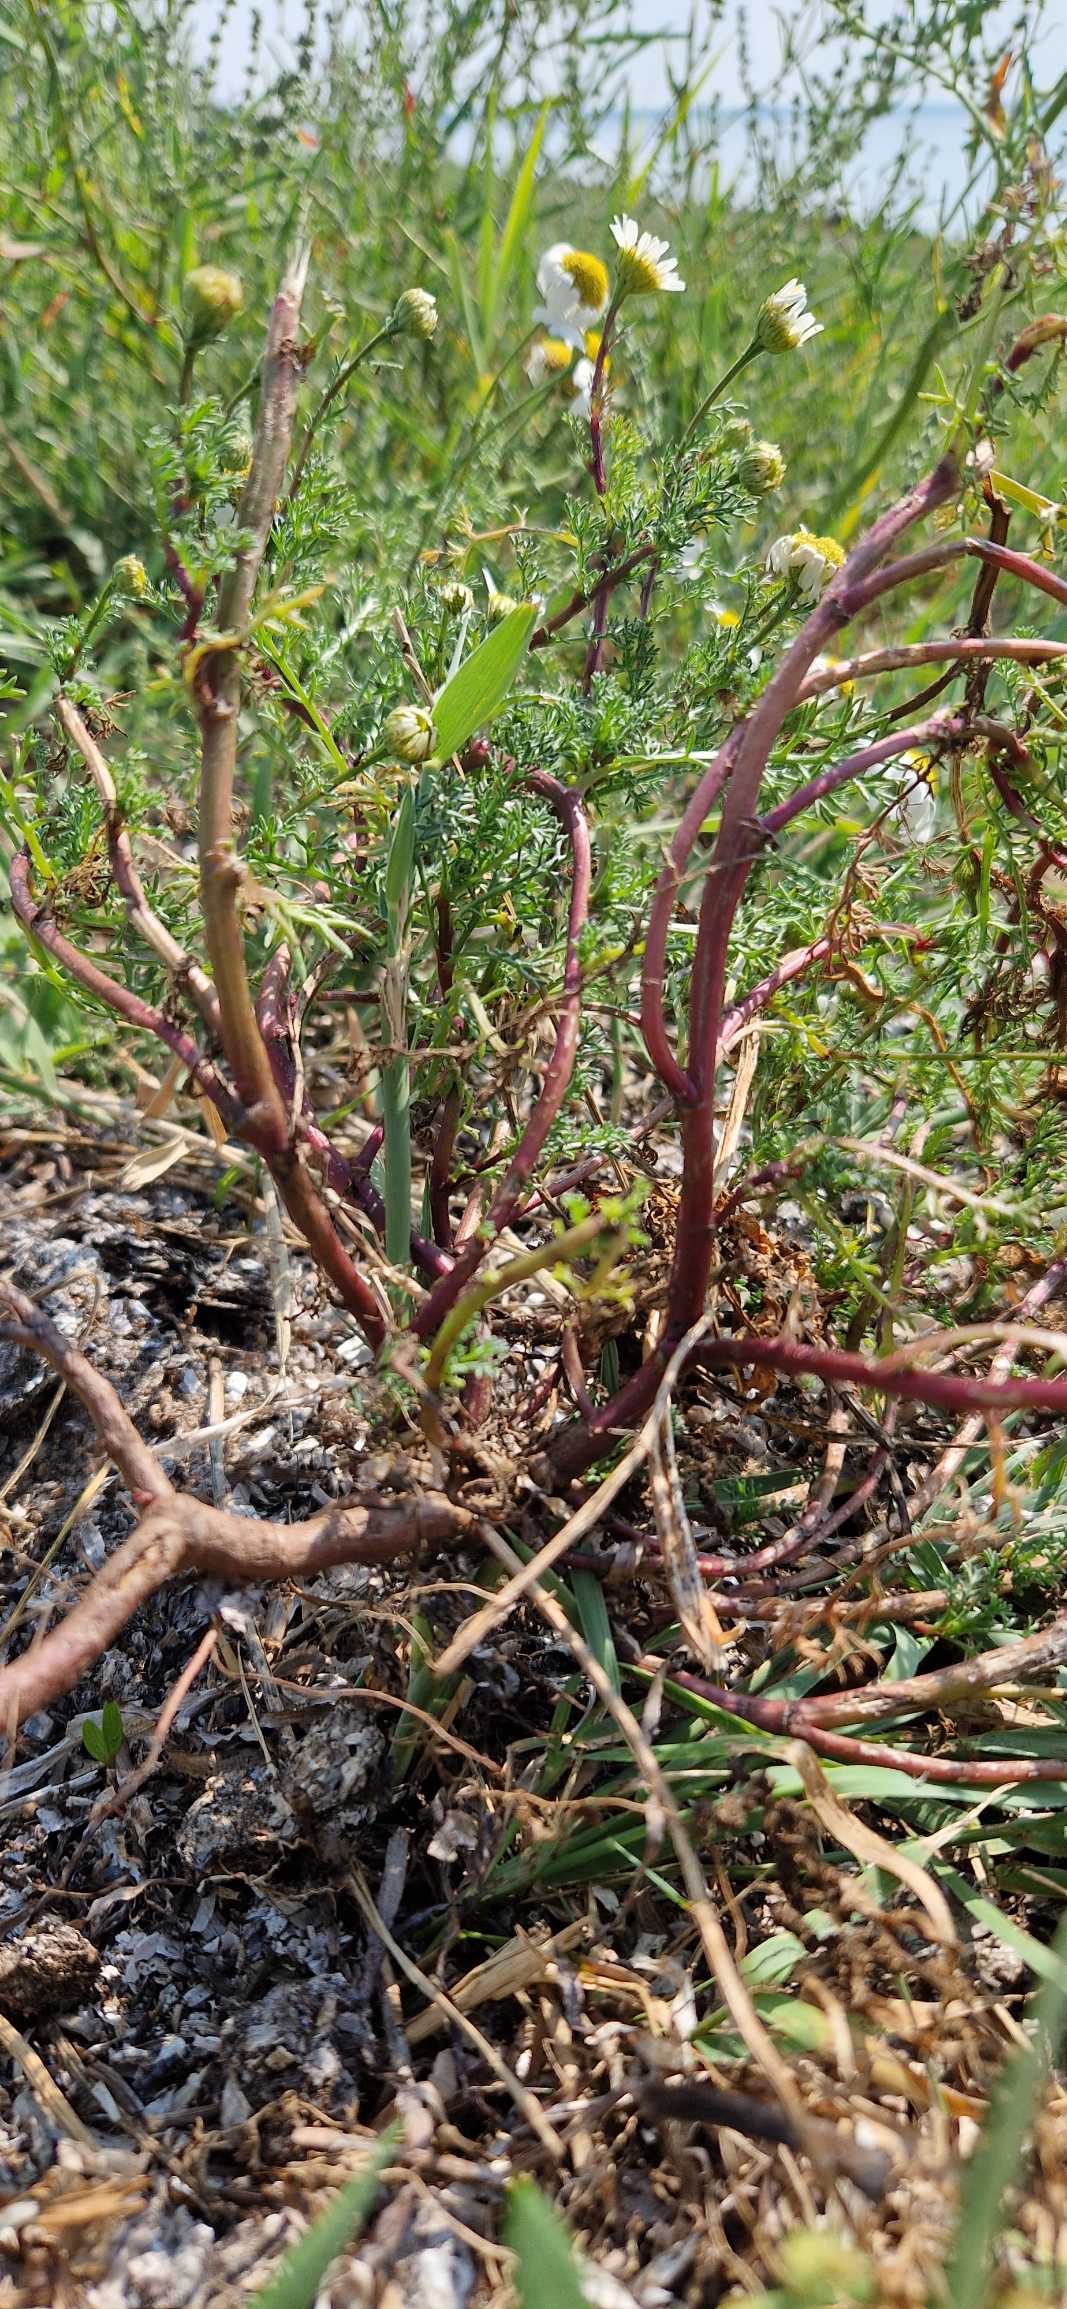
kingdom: Plantae
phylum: Tracheophyta
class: Magnoliopsida
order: Asterales
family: Asteraceae
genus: Tripleurospermum
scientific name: Tripleurospermum maritimum
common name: Strand-kamille
